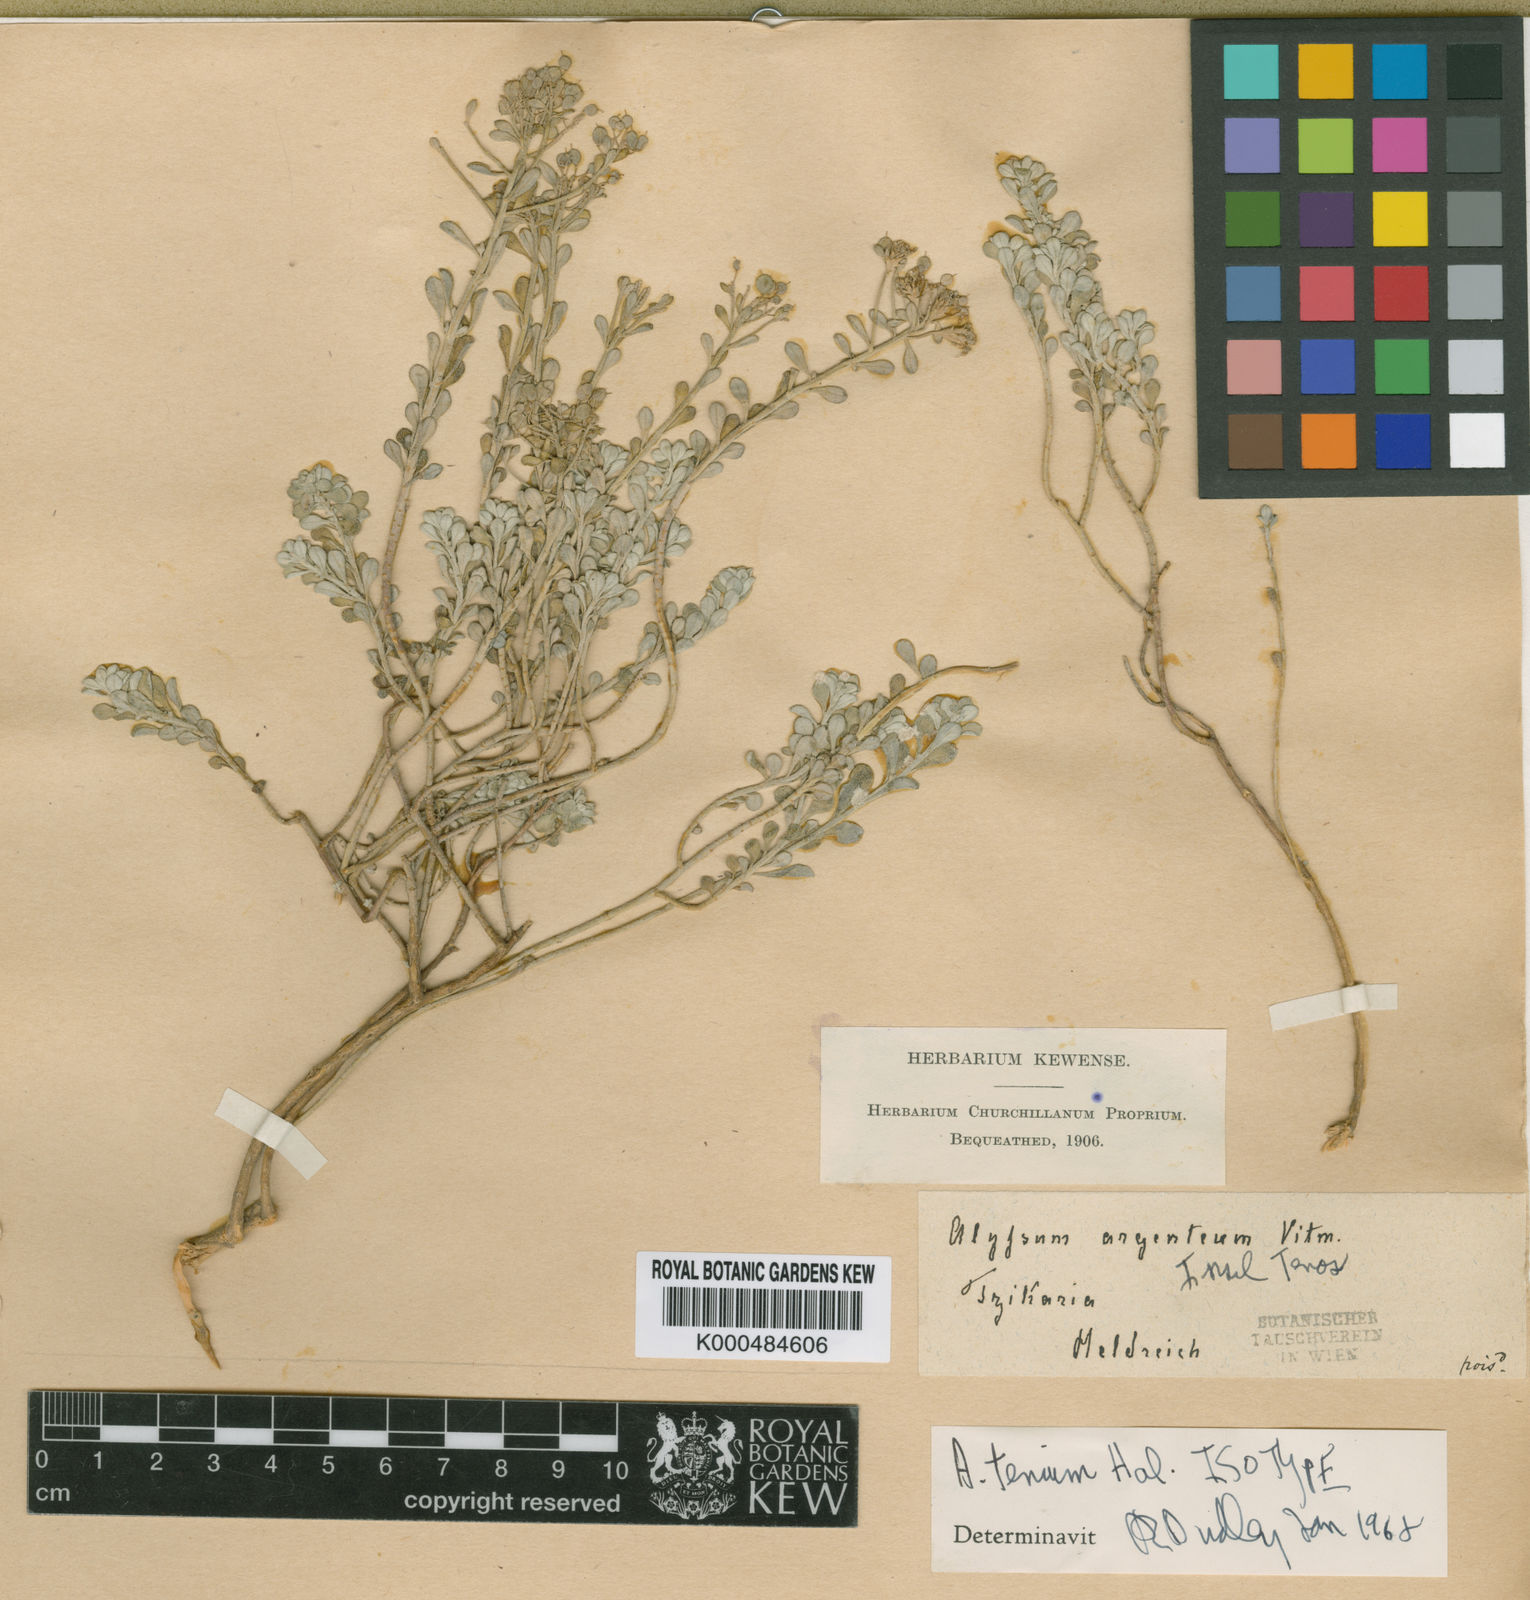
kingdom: Plantae
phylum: Tracheophyta
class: Magnoliopsida
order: Brassicales
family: Brassicaceae
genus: Alyssum
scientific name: Alyssum
